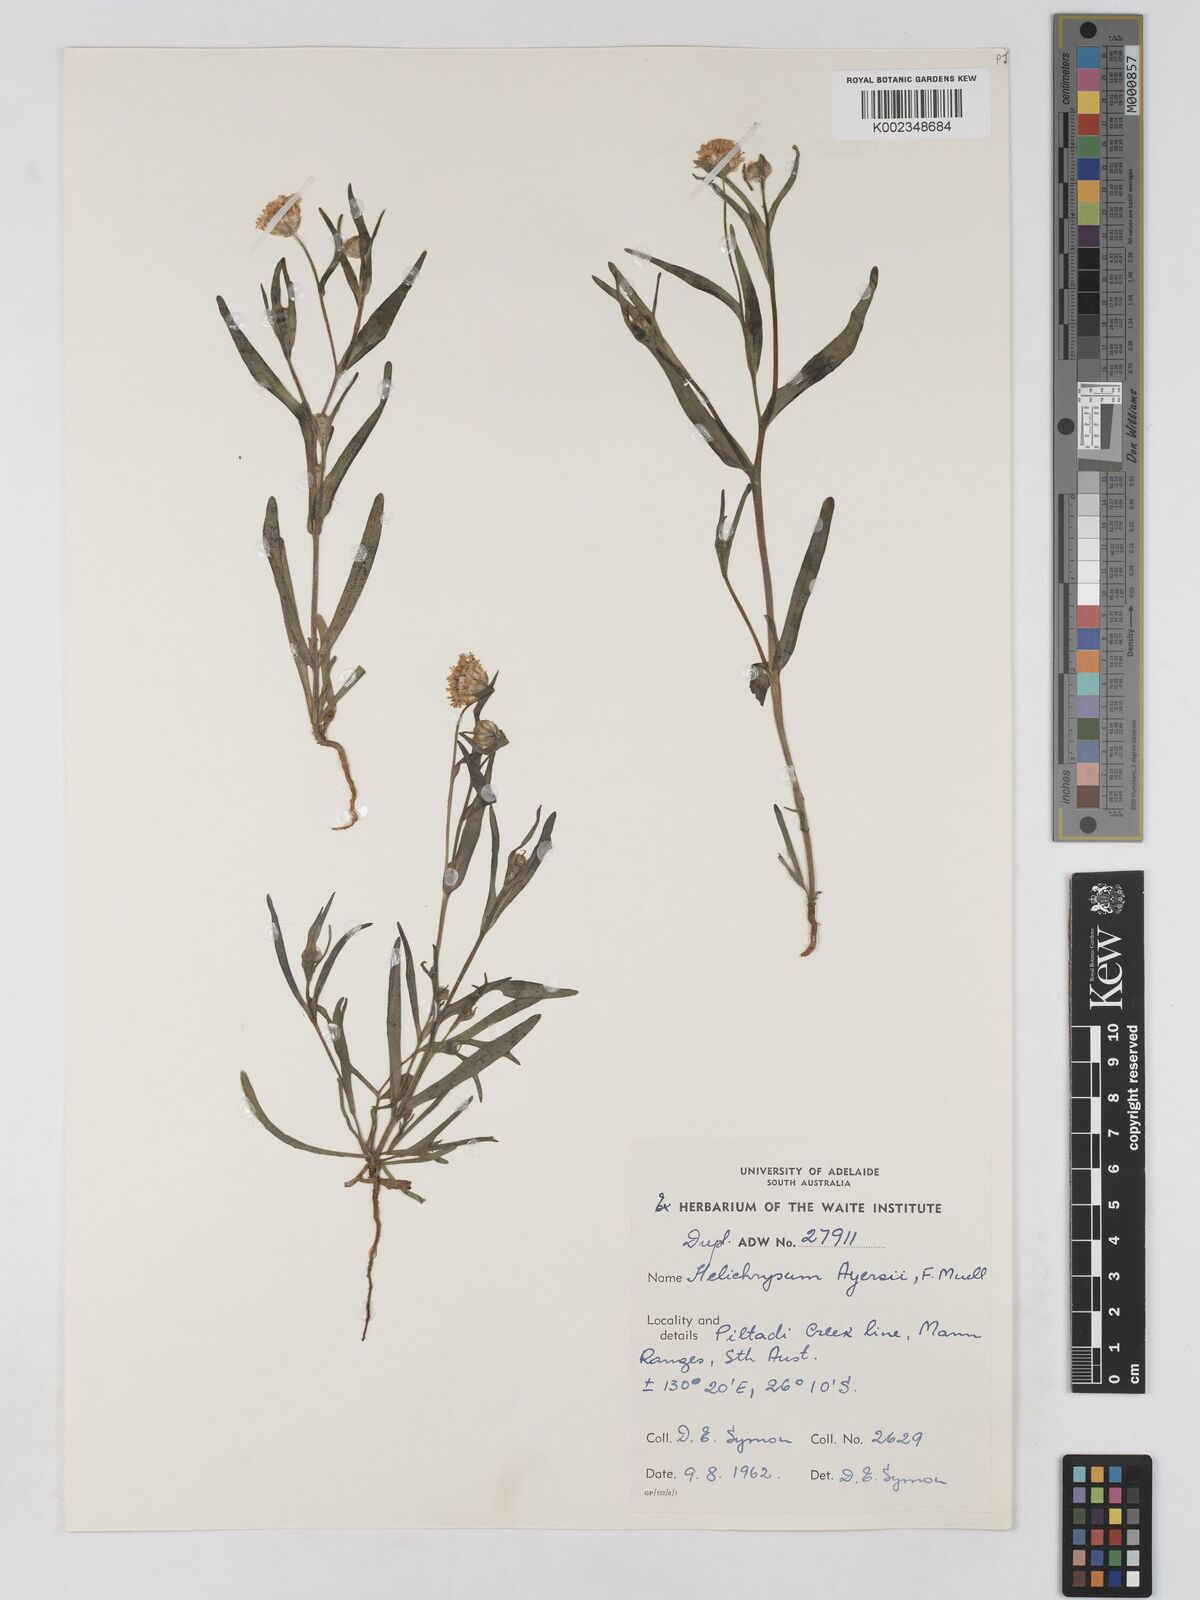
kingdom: Plantae
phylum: Tracheophyta
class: Magnoliopsida
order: Asterales
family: Asteraceae
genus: Schoenia
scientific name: Schoenia ayersii
